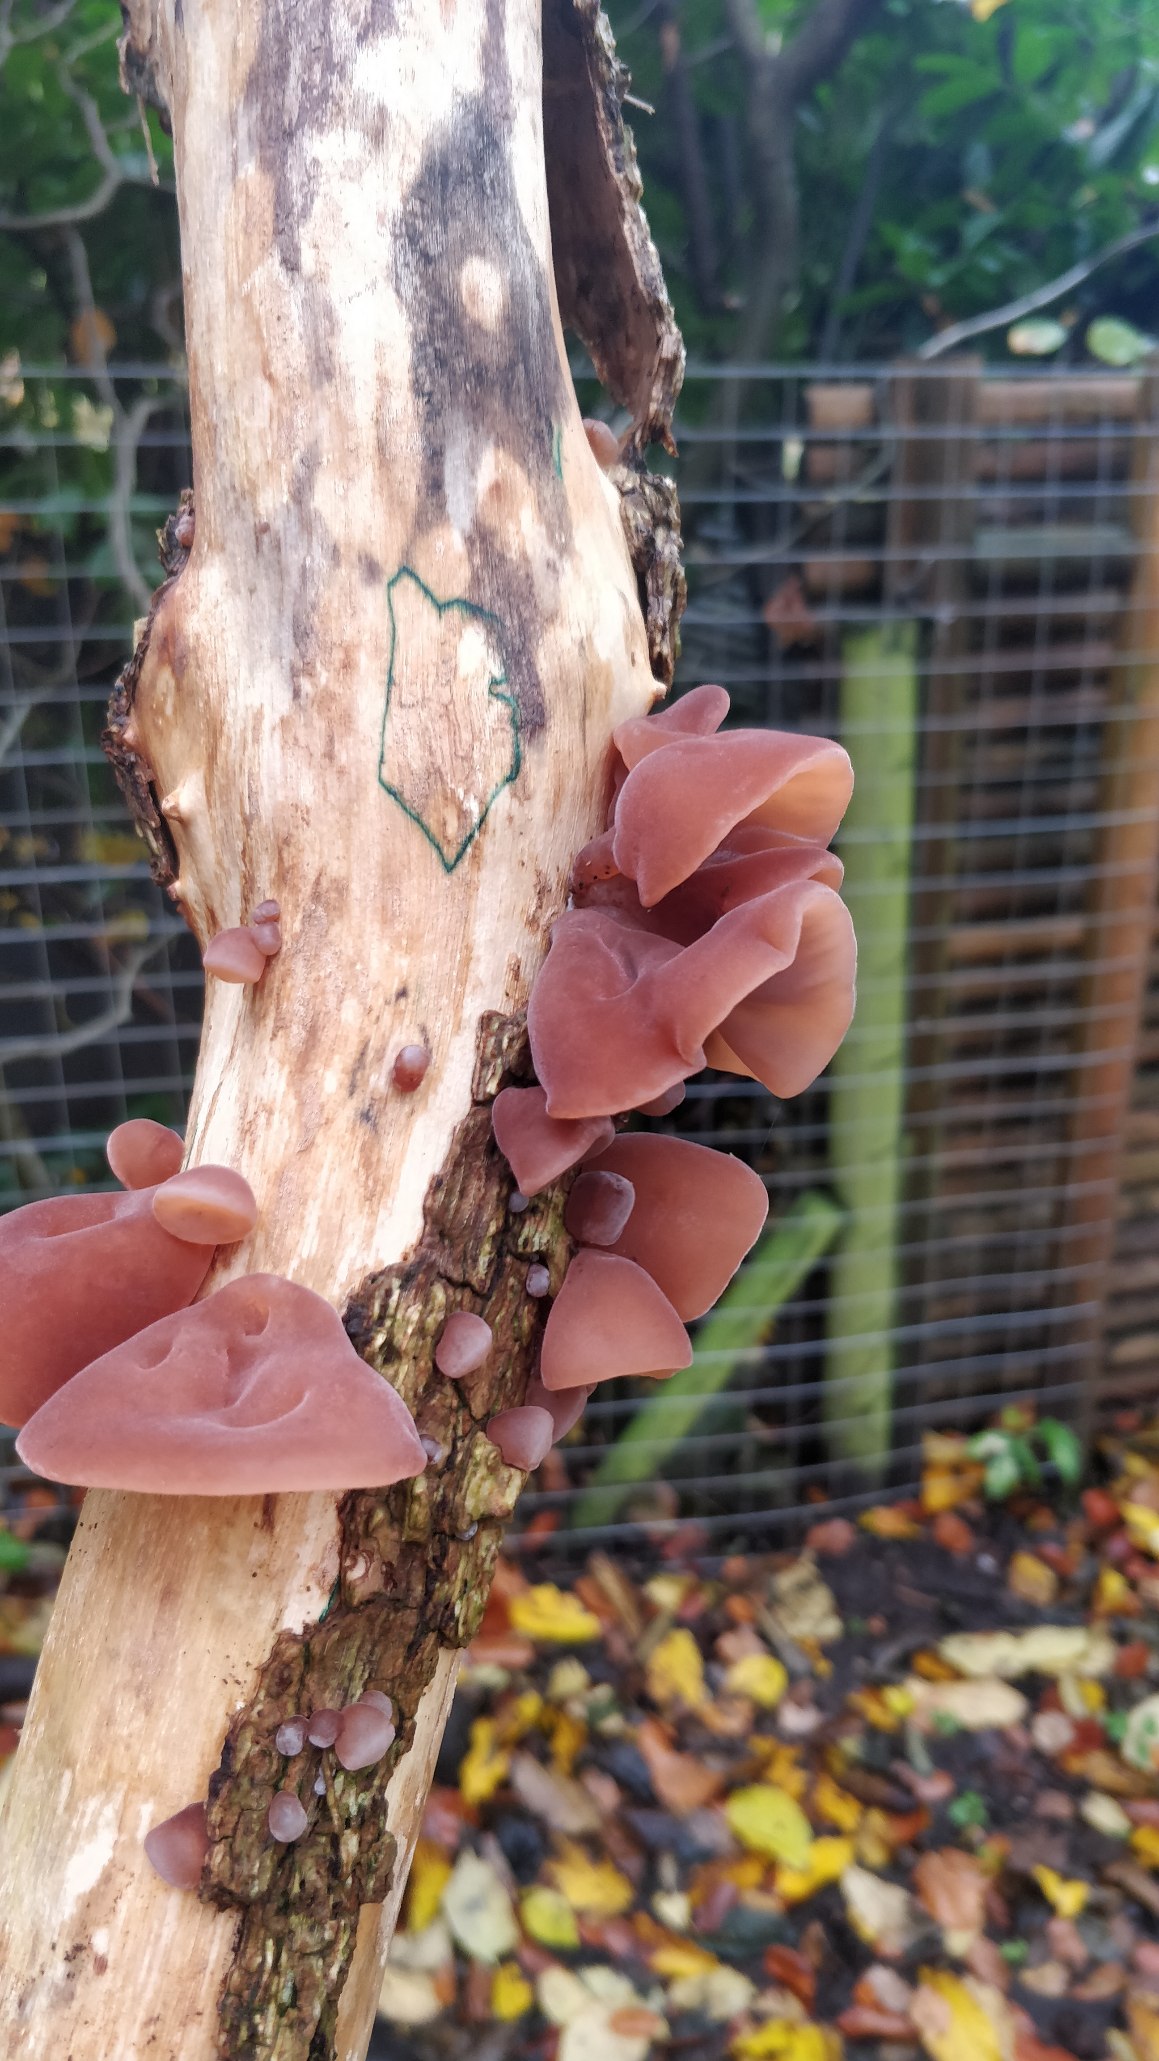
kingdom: Fungi
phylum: Basidiomycota
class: Agaricomycetes
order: Auriculariales
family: Auriculariaceae
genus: Auricularia
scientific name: Auricularia auricula-judae
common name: Almindelig judasøre
